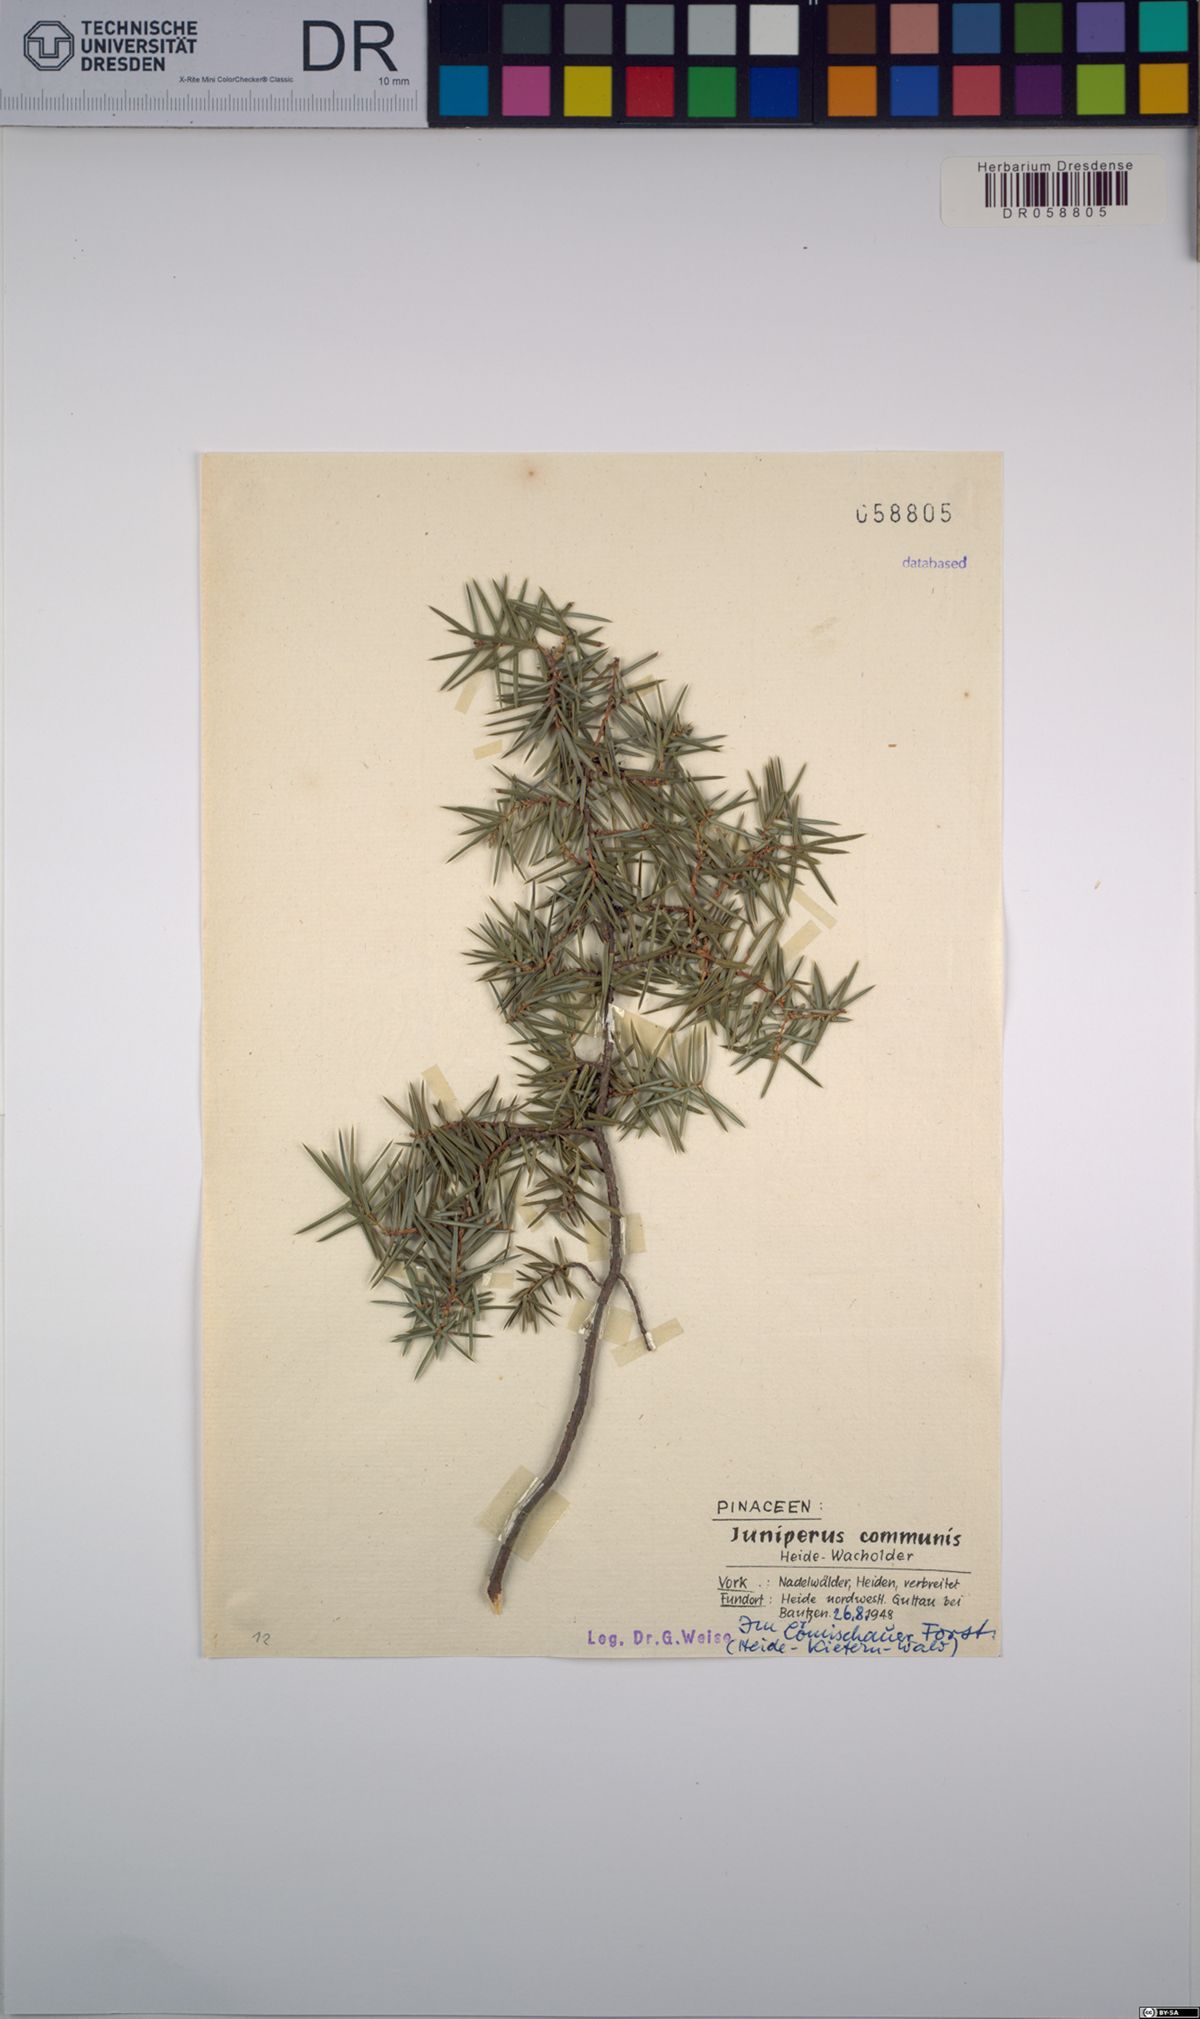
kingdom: Plantae
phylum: Tracheophyta
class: Pinopsida
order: Pinales
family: Cupressaceae
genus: Juniperus
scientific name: Juniperus communis
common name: Common juniper
